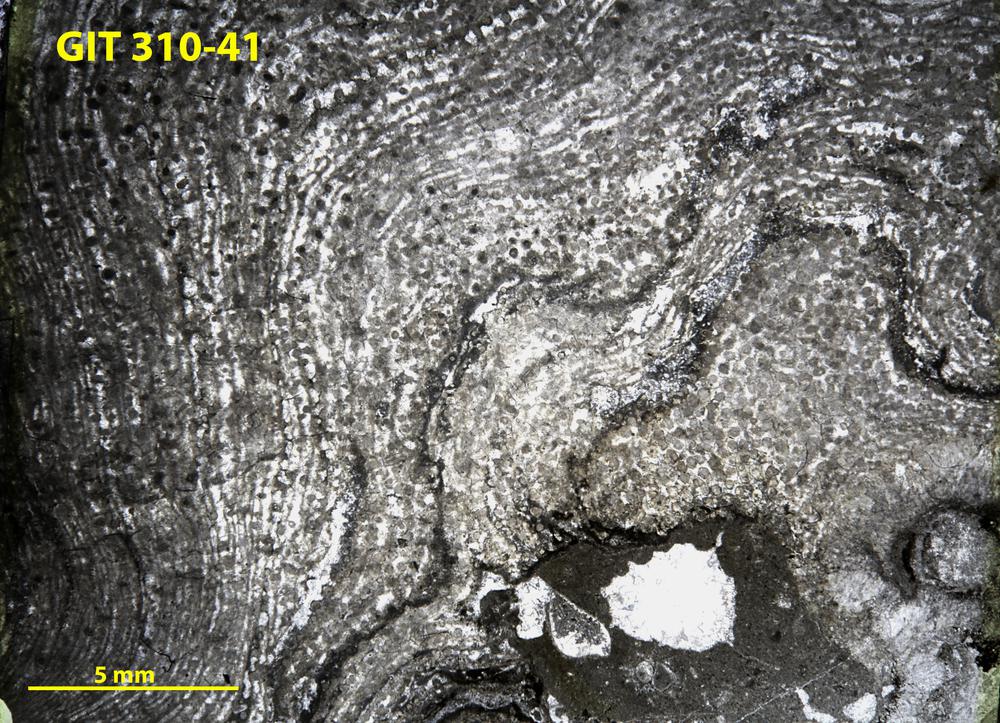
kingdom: Animalia
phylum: Porifera
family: Labechiidae
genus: Labechia
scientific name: Labechia
